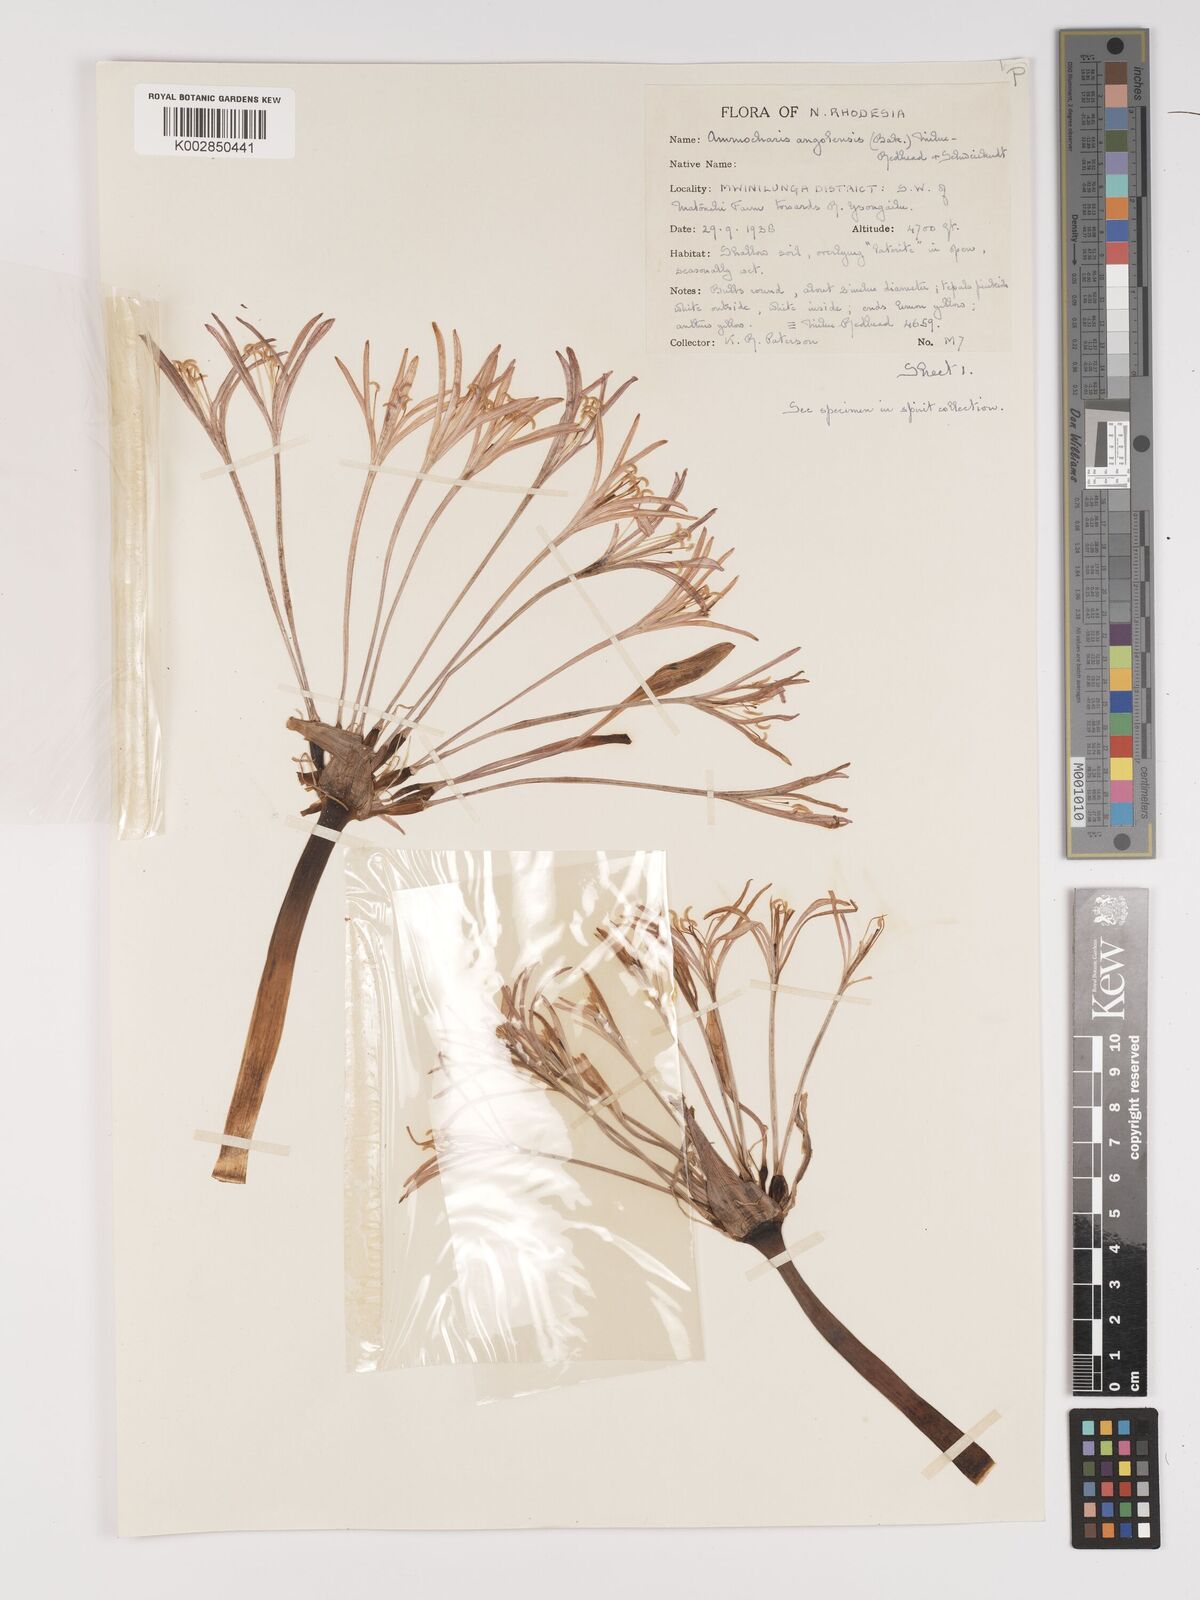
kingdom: Plantae
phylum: Tracheophyta
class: Liliopsida
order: Asparagales
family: Amaryllidaceae
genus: Ammocharis
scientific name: Ammocharis angolensis
